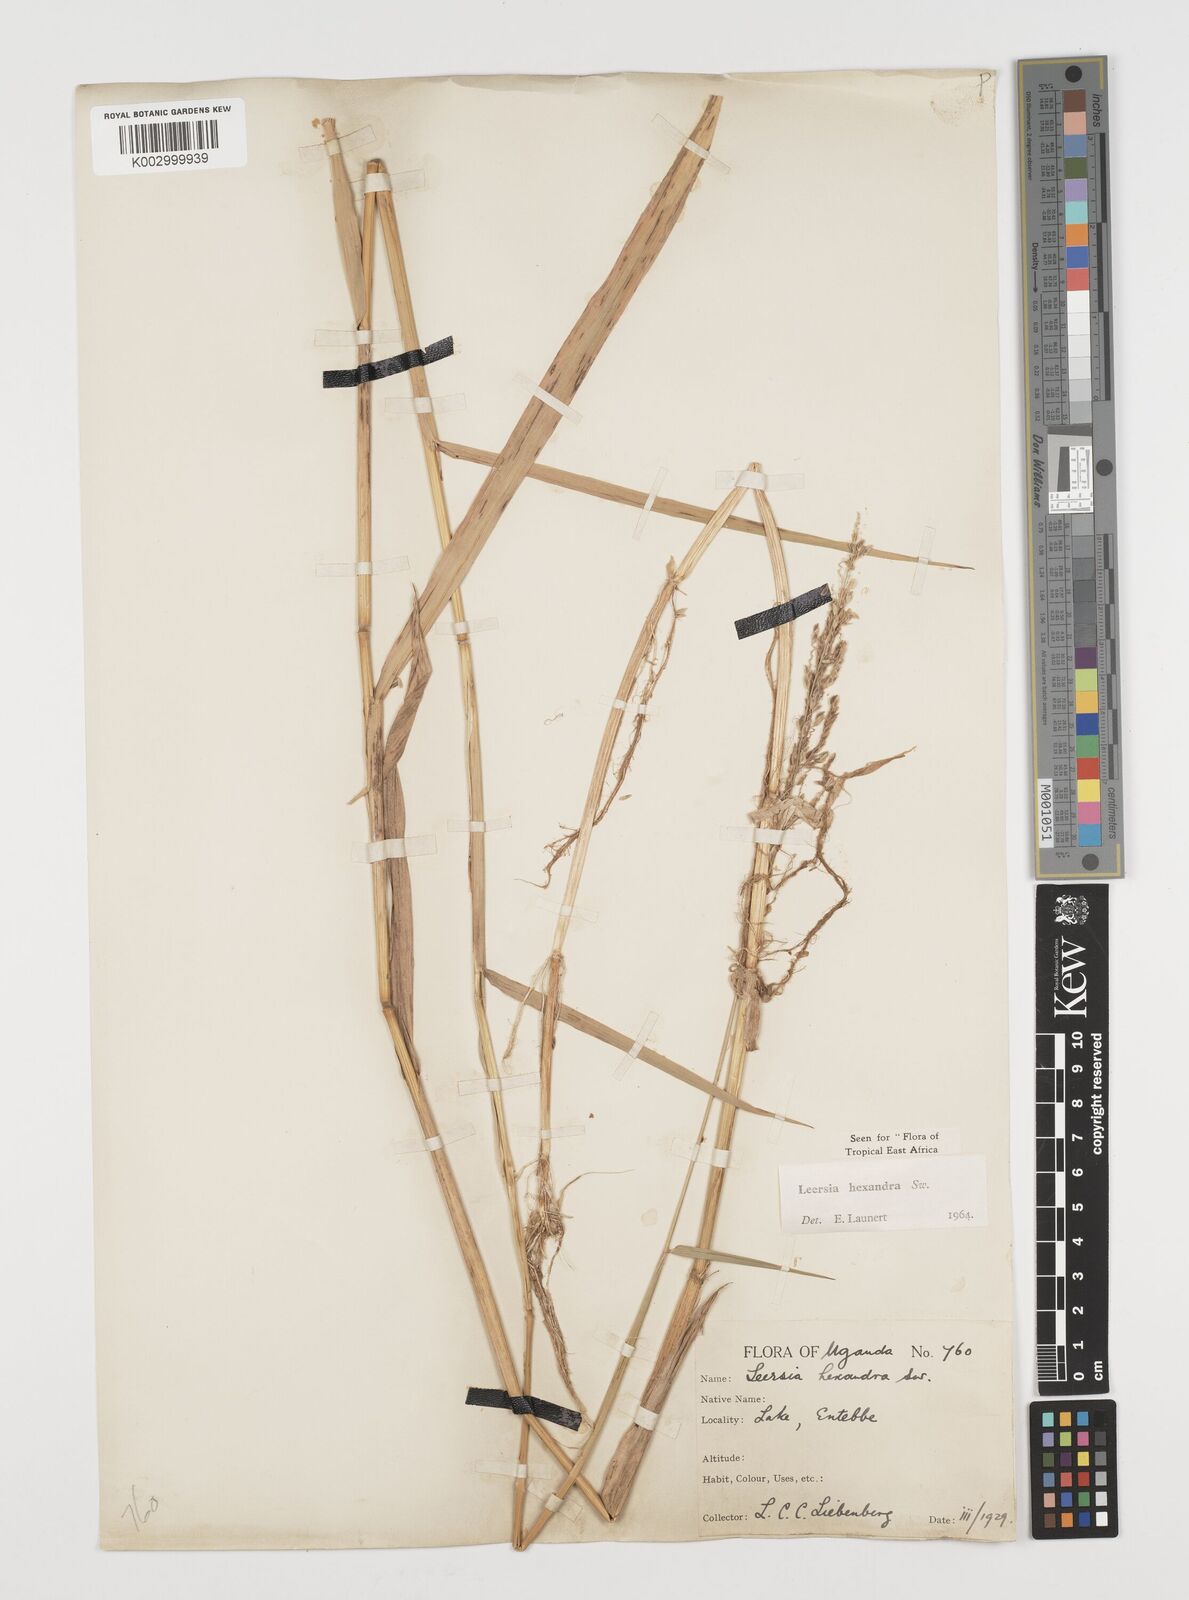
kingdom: Plantae
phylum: Tracheophyta
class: Liliopsida
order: Poales
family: Poaceae
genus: Leersia
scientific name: Leersia hexandra
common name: Southern cut grass
